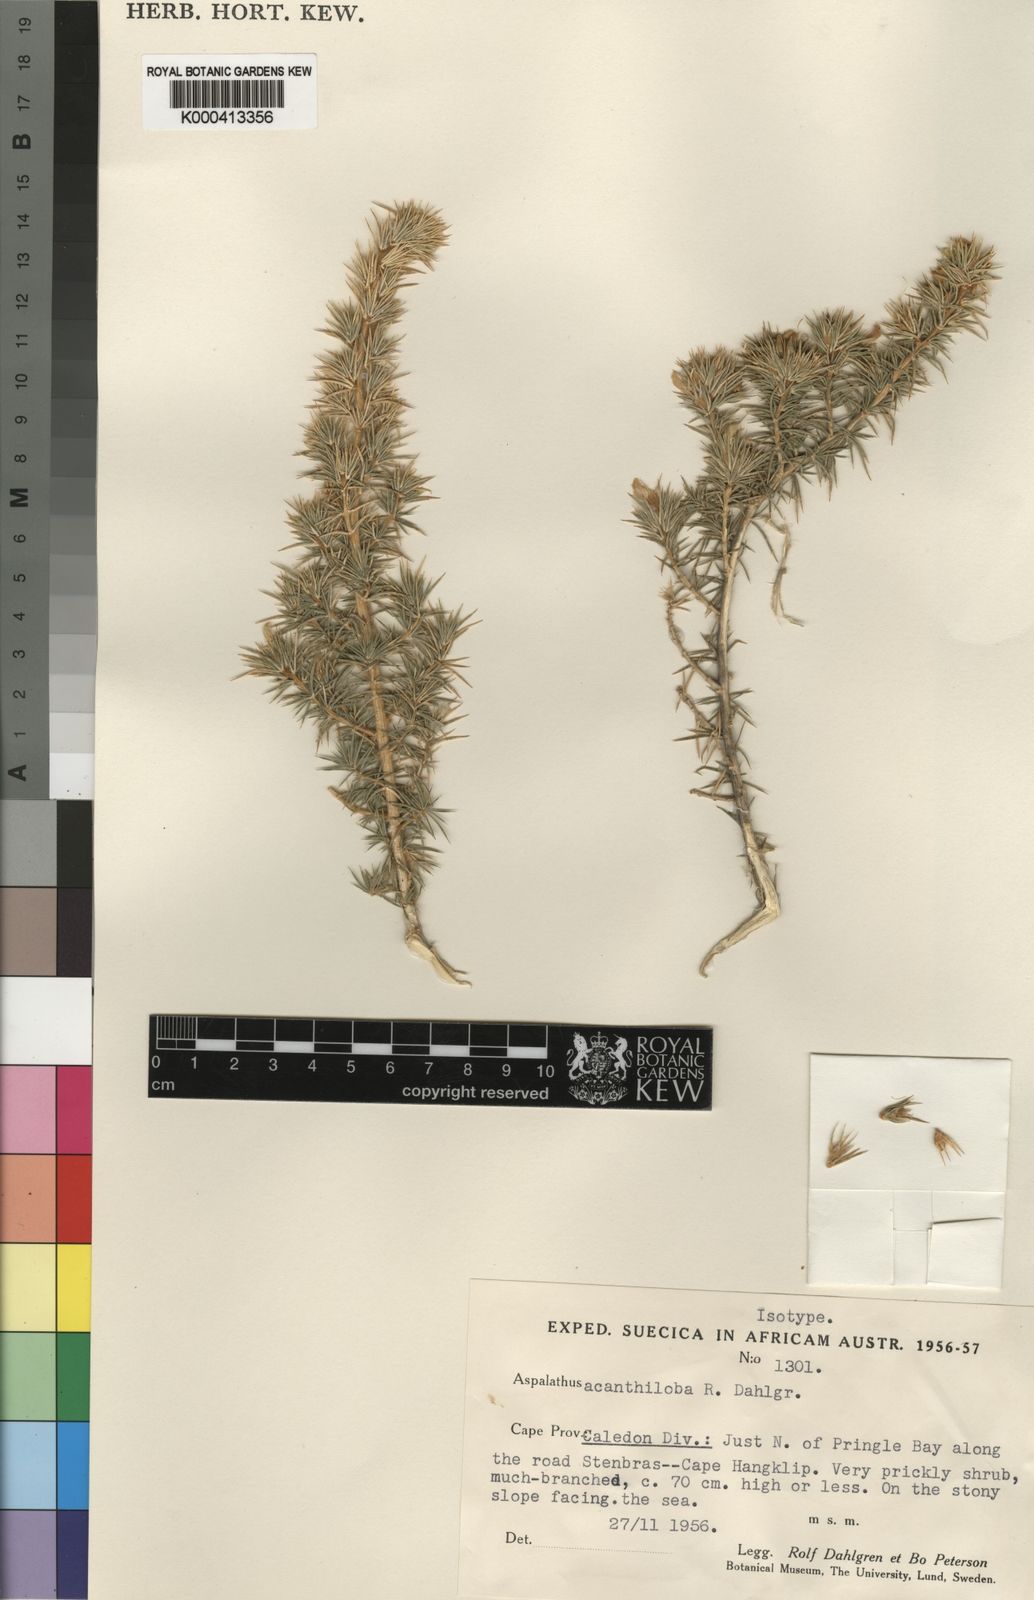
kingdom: Plantae
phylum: Tracheophyta
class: Magnoliopsida
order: Fabales
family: Fabaceae
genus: Aspalathus
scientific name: Aspalathus acanthiloba
